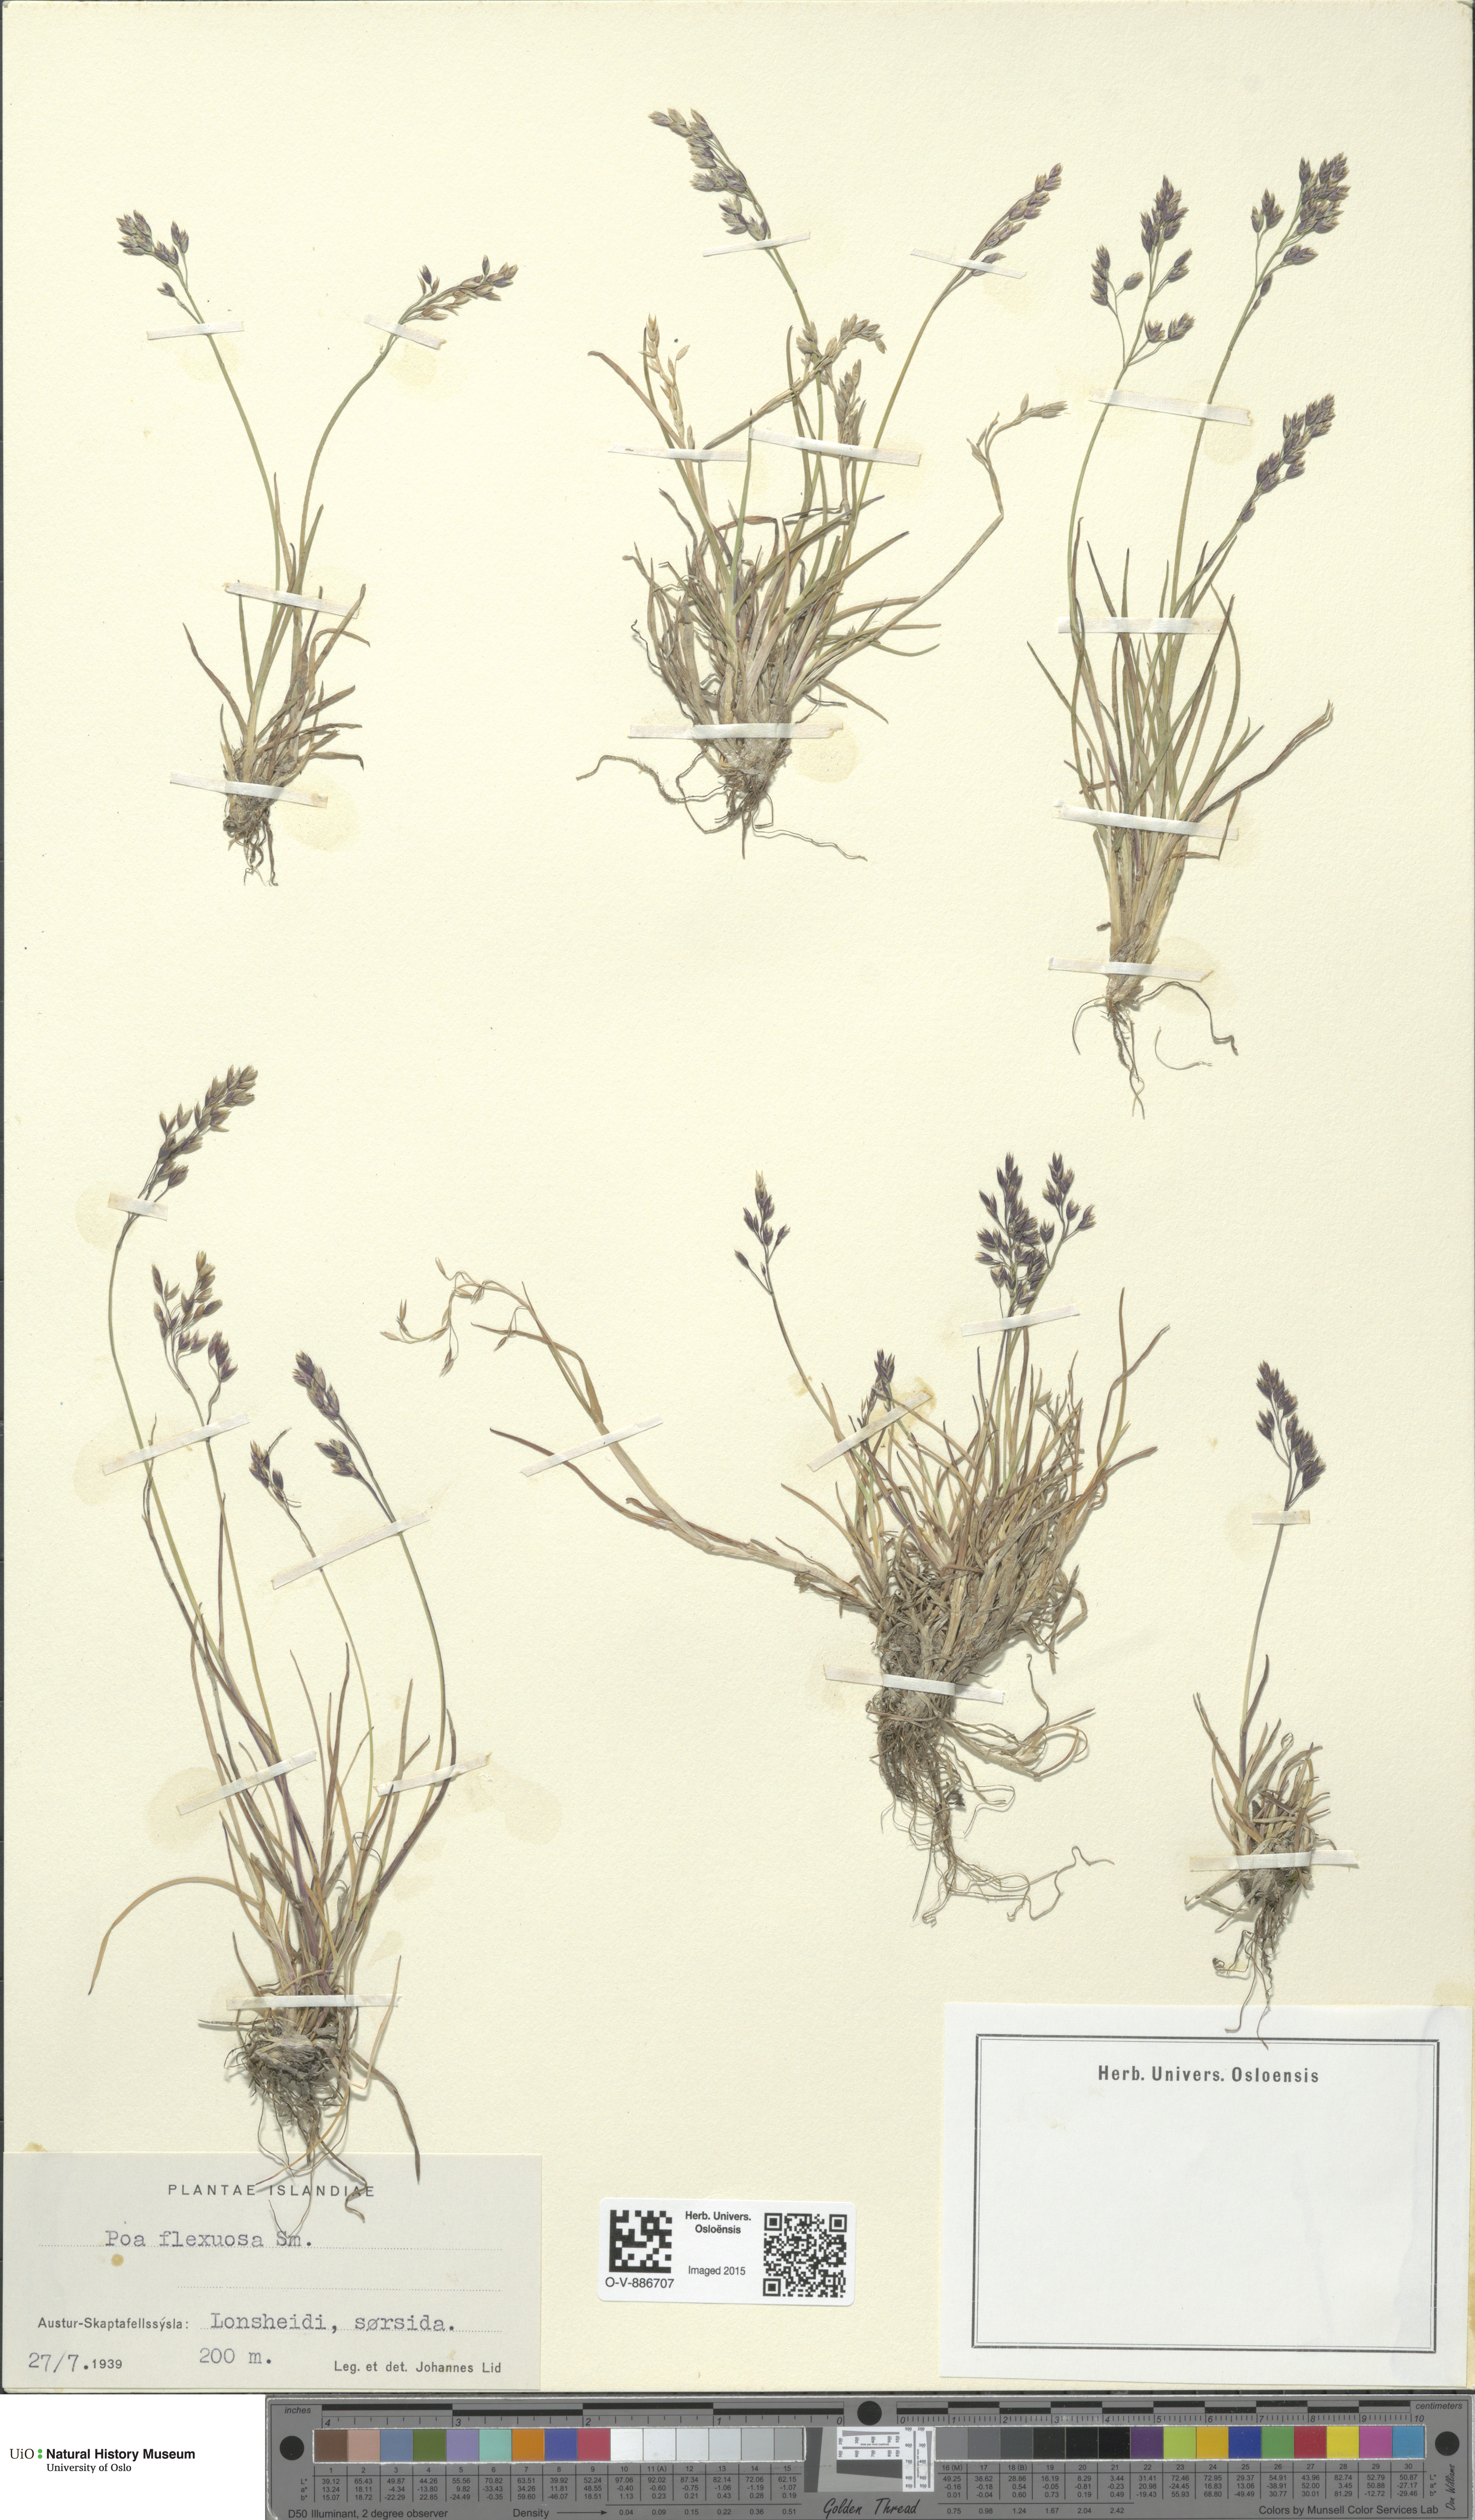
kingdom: Plantae
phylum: Tracheophyta
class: Liliopsida
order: Poales
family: Poaceae
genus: Poa
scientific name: Poa flexuosa
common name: Wavy meadow-grass
